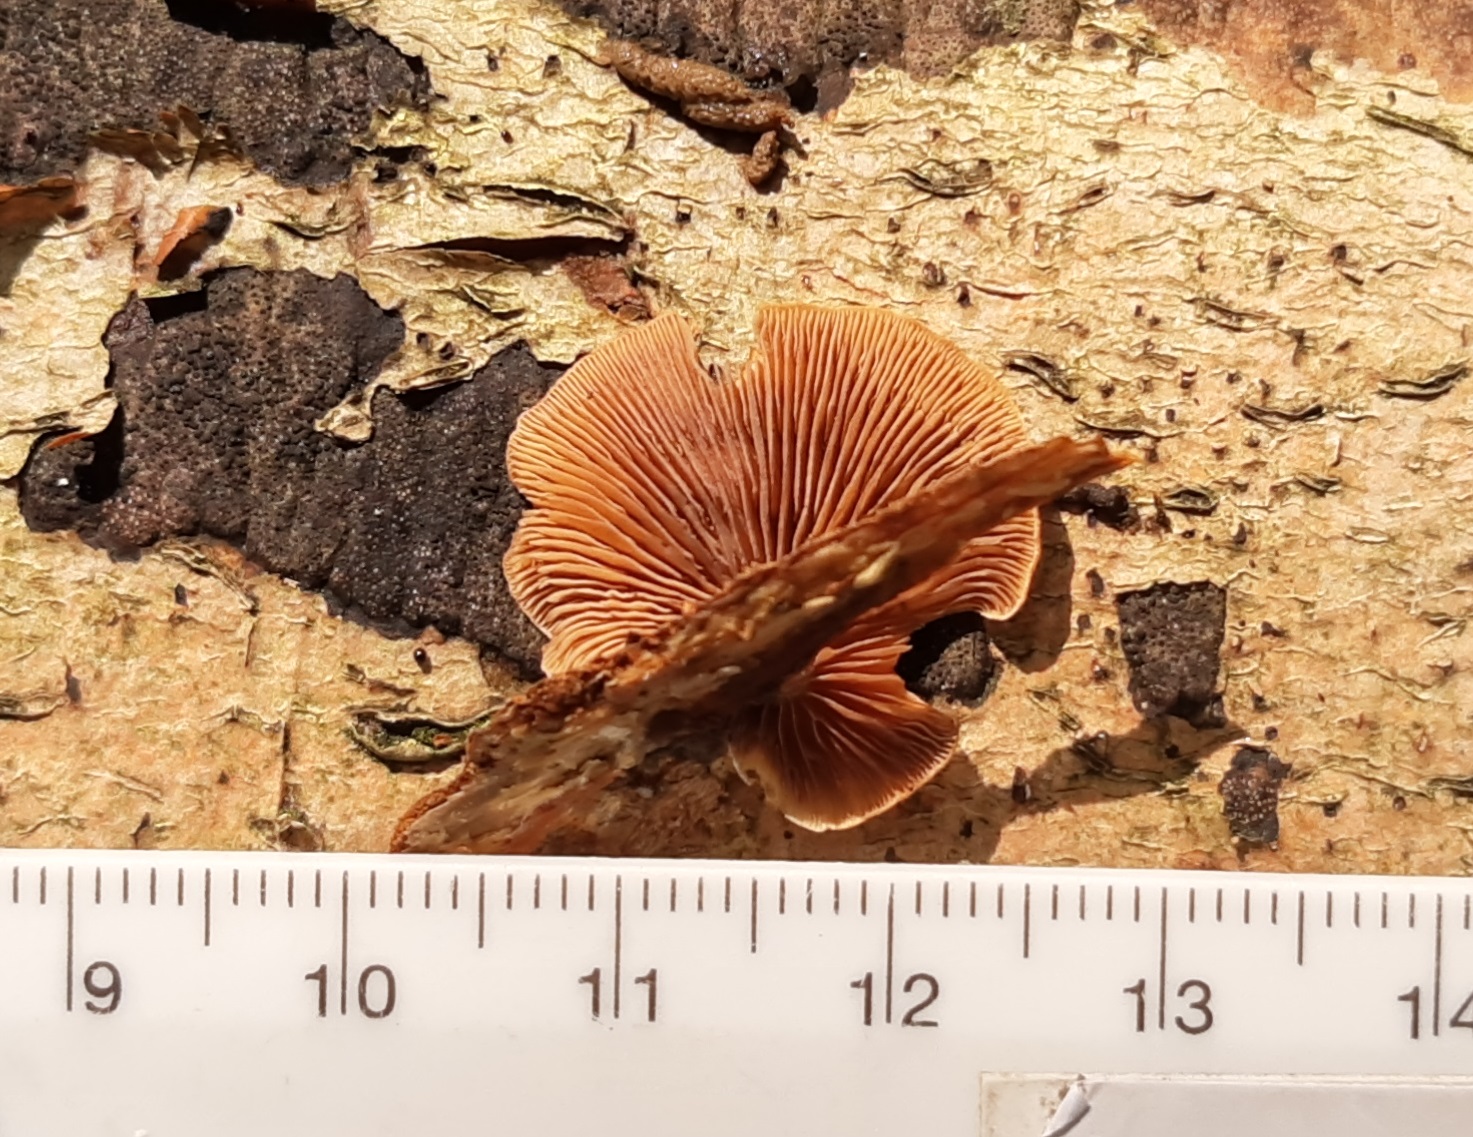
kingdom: Fungi
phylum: Basidiomycota
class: Agaricomycetes
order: Agaricales
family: Strophariaceae
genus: Deconica
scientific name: Deconica horizontalis
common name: ved-stråhat
